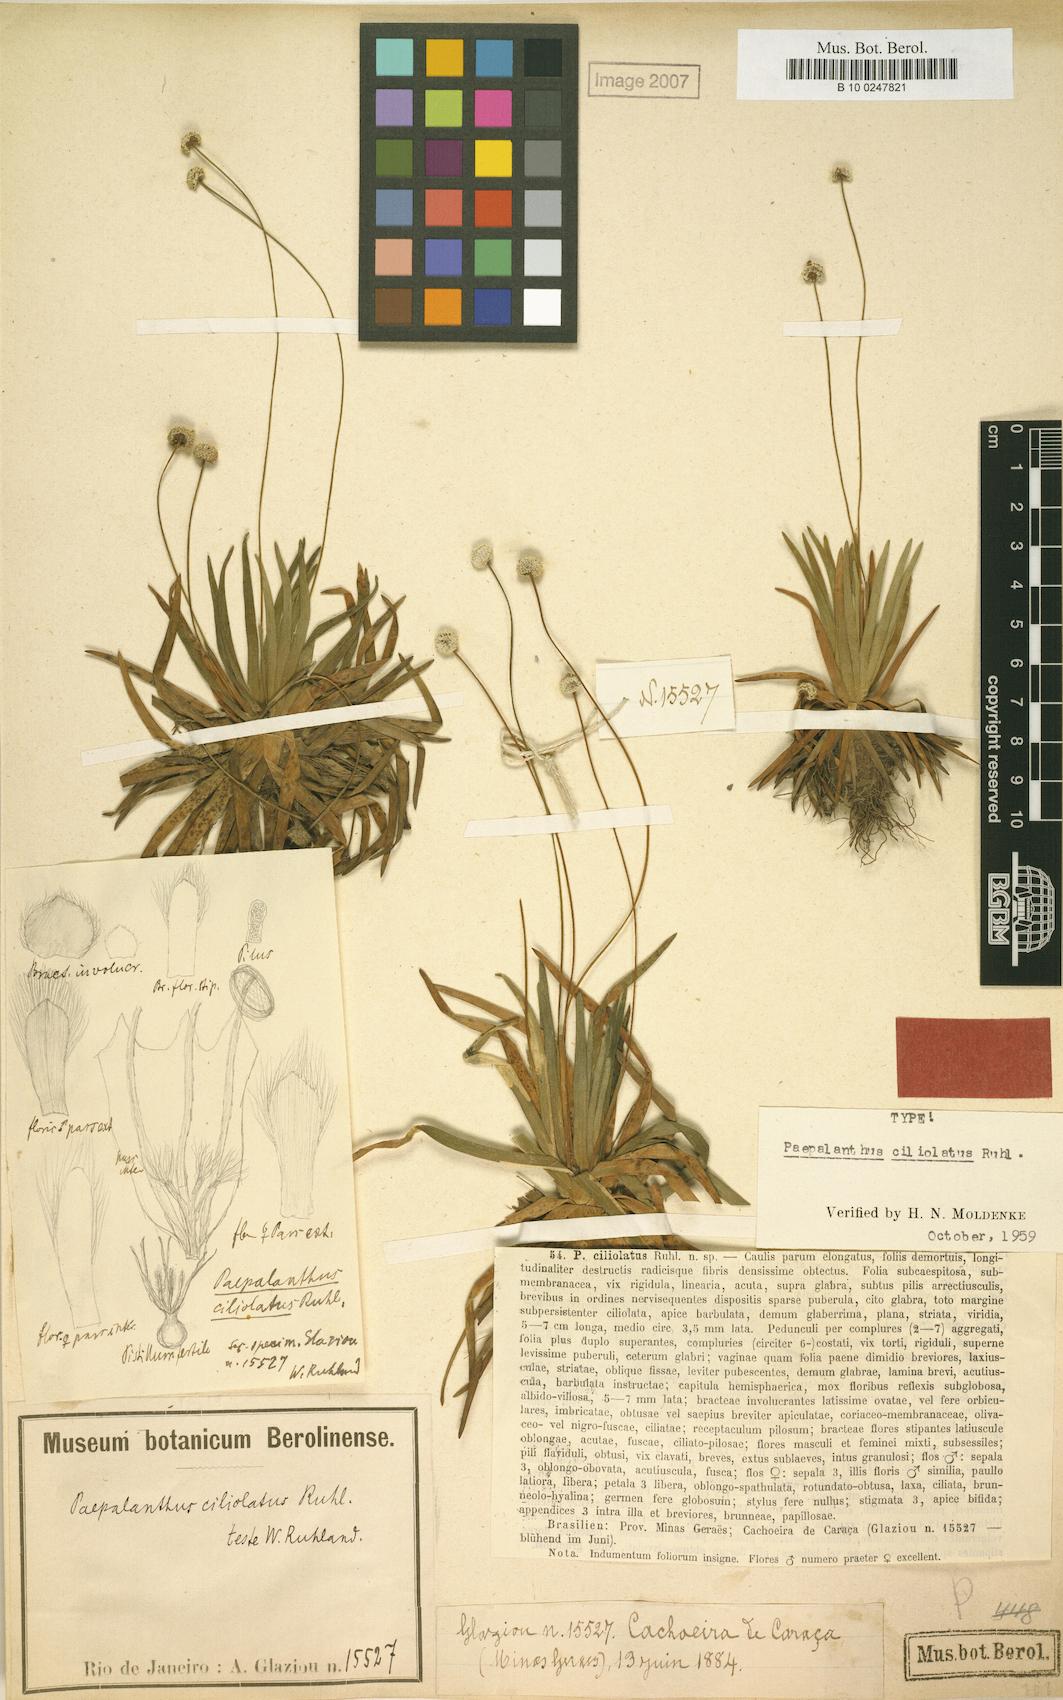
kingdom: Plantae
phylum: Tracheophyta
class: Liliopsida
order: Poales
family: Eriocaulaceae
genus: Paepalanthus
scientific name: Paepalanthus ciliolatus
